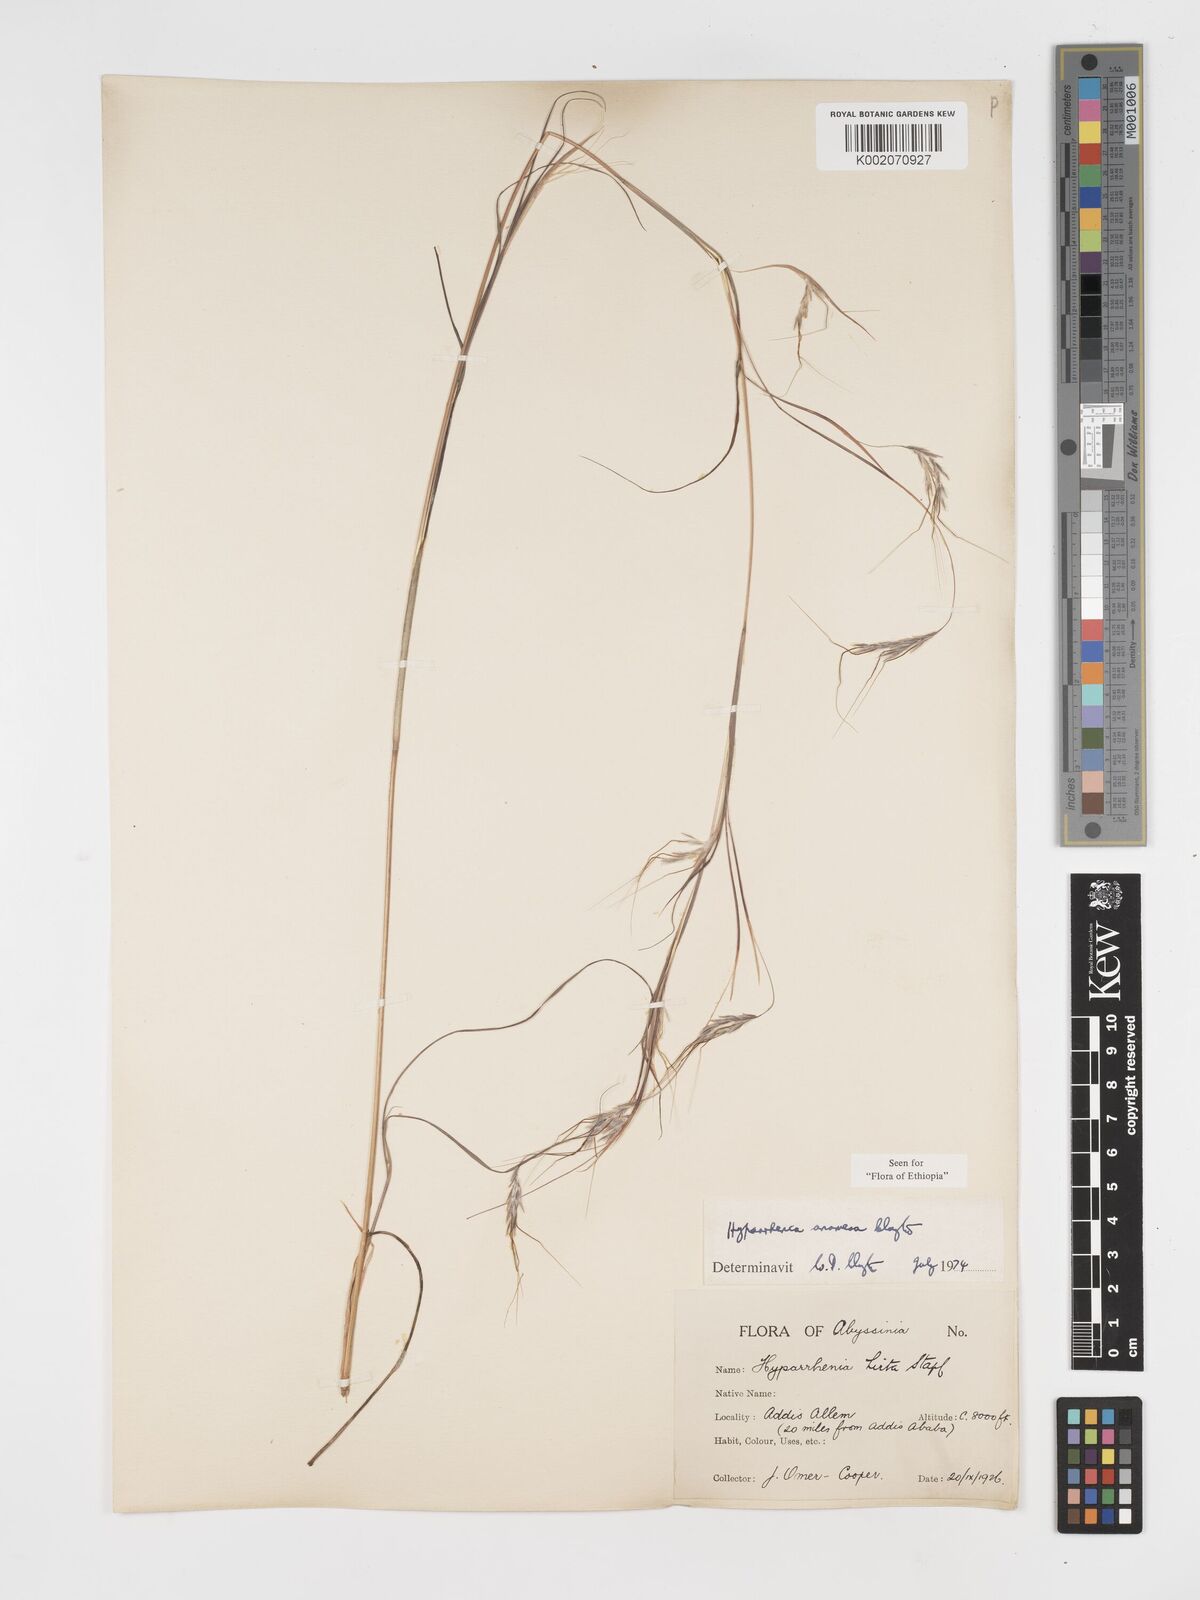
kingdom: Plantae
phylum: Tracheophyta
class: Liliopsida
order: Poales
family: Poaceae
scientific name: Poaceae
